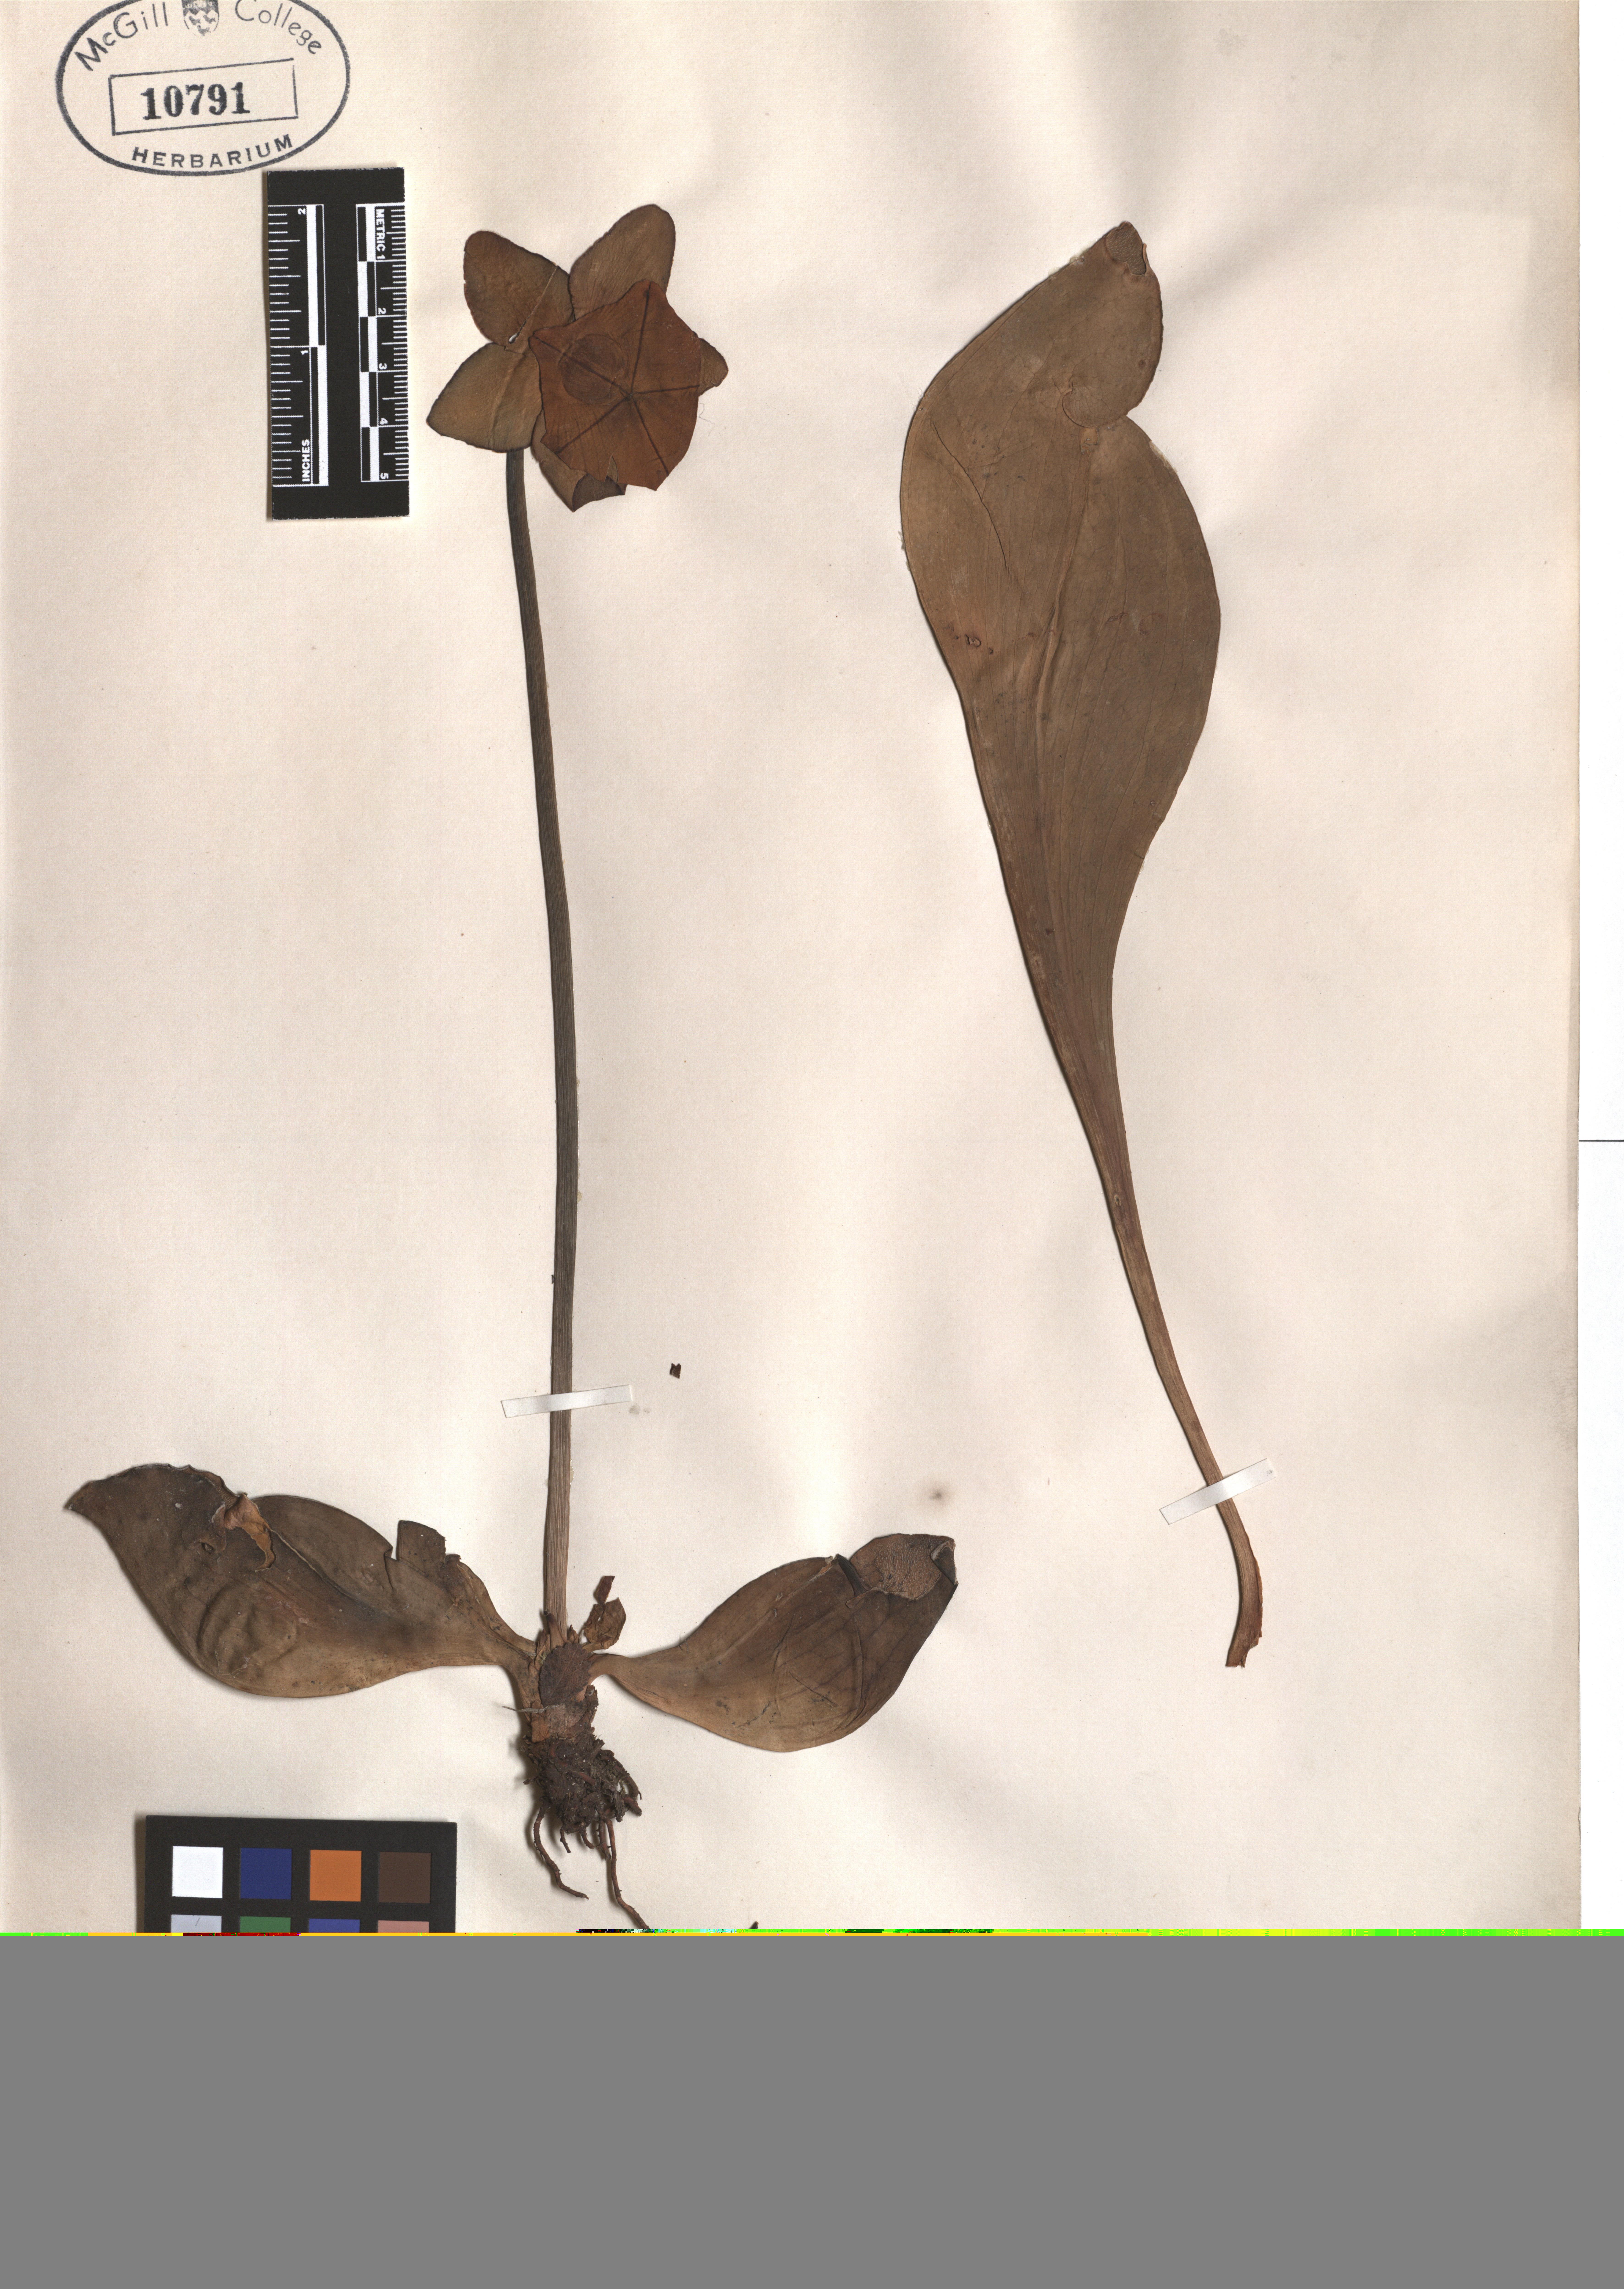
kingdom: Plantae
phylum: Tracheophyta
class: Magnoliopsida
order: Ericales
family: Sarraceniaceae
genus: Sarracenia
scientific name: Sarracenia purpurea
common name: Pitcherplant
